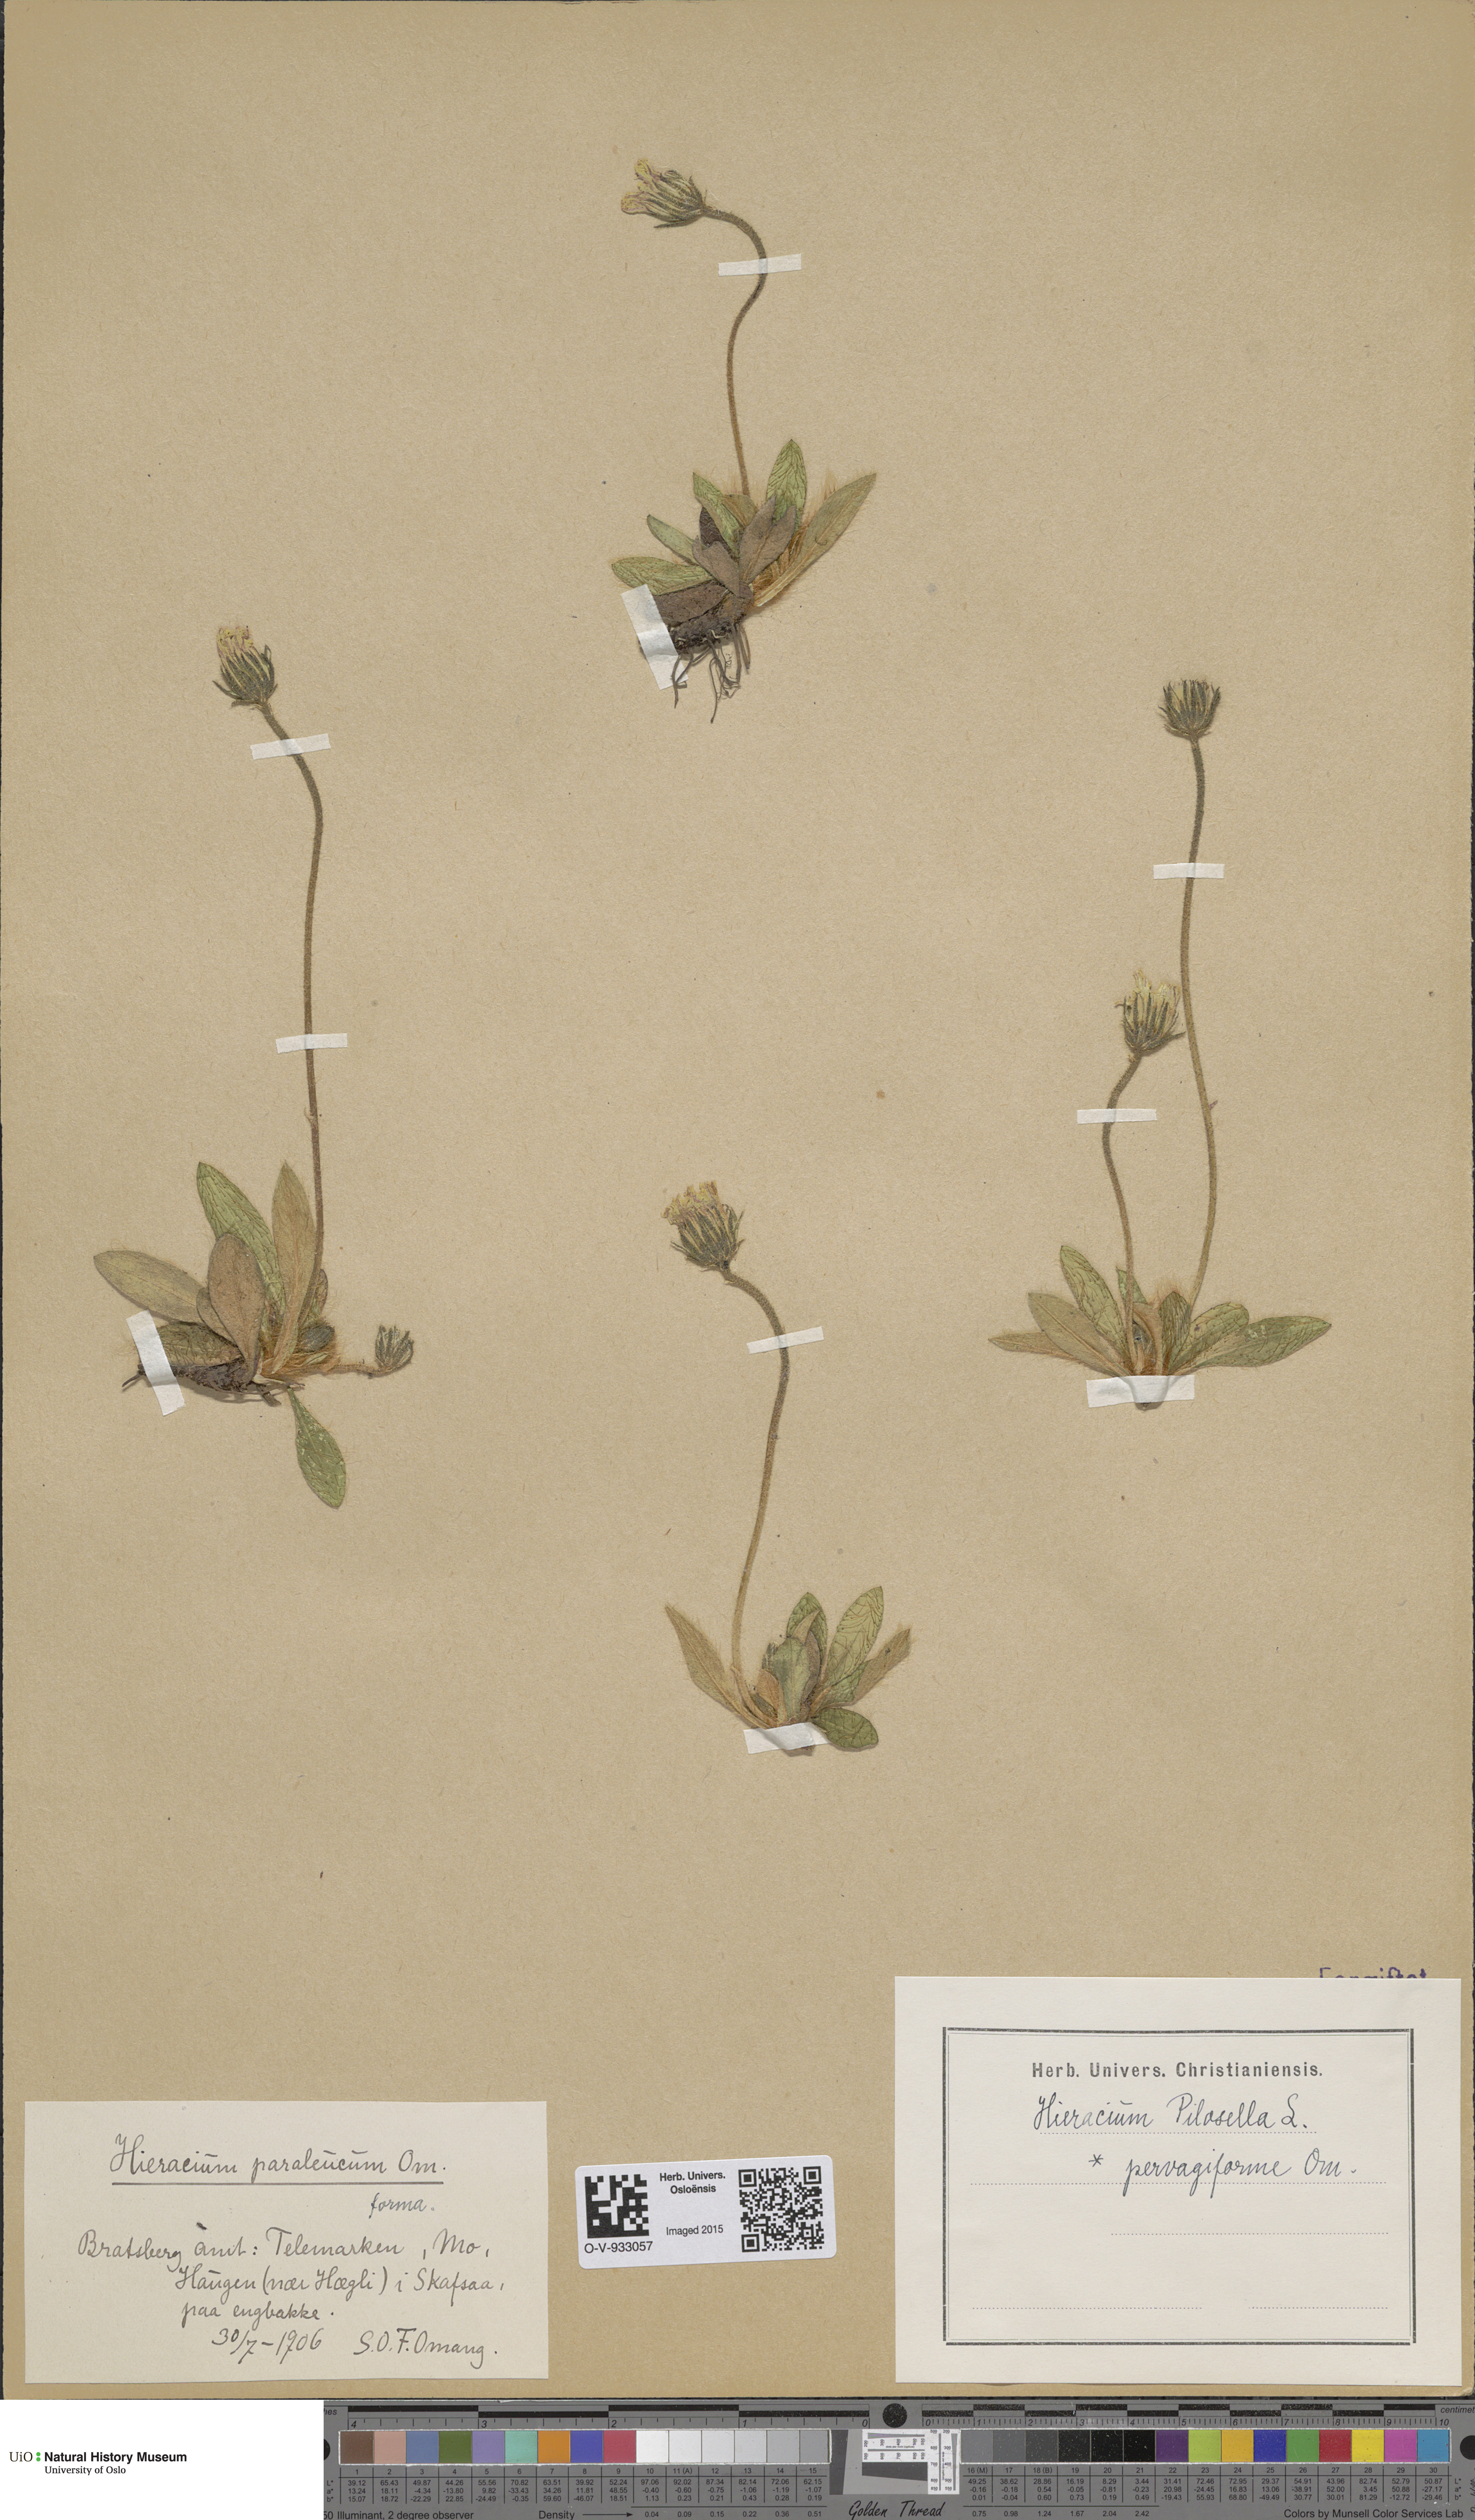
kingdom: Plantae
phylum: Tracheophyta
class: Magnoliopsida
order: Asterales
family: Asteraceae
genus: Pilosella
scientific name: Pilosella officinarum
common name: Mouse-ear hawkweed
